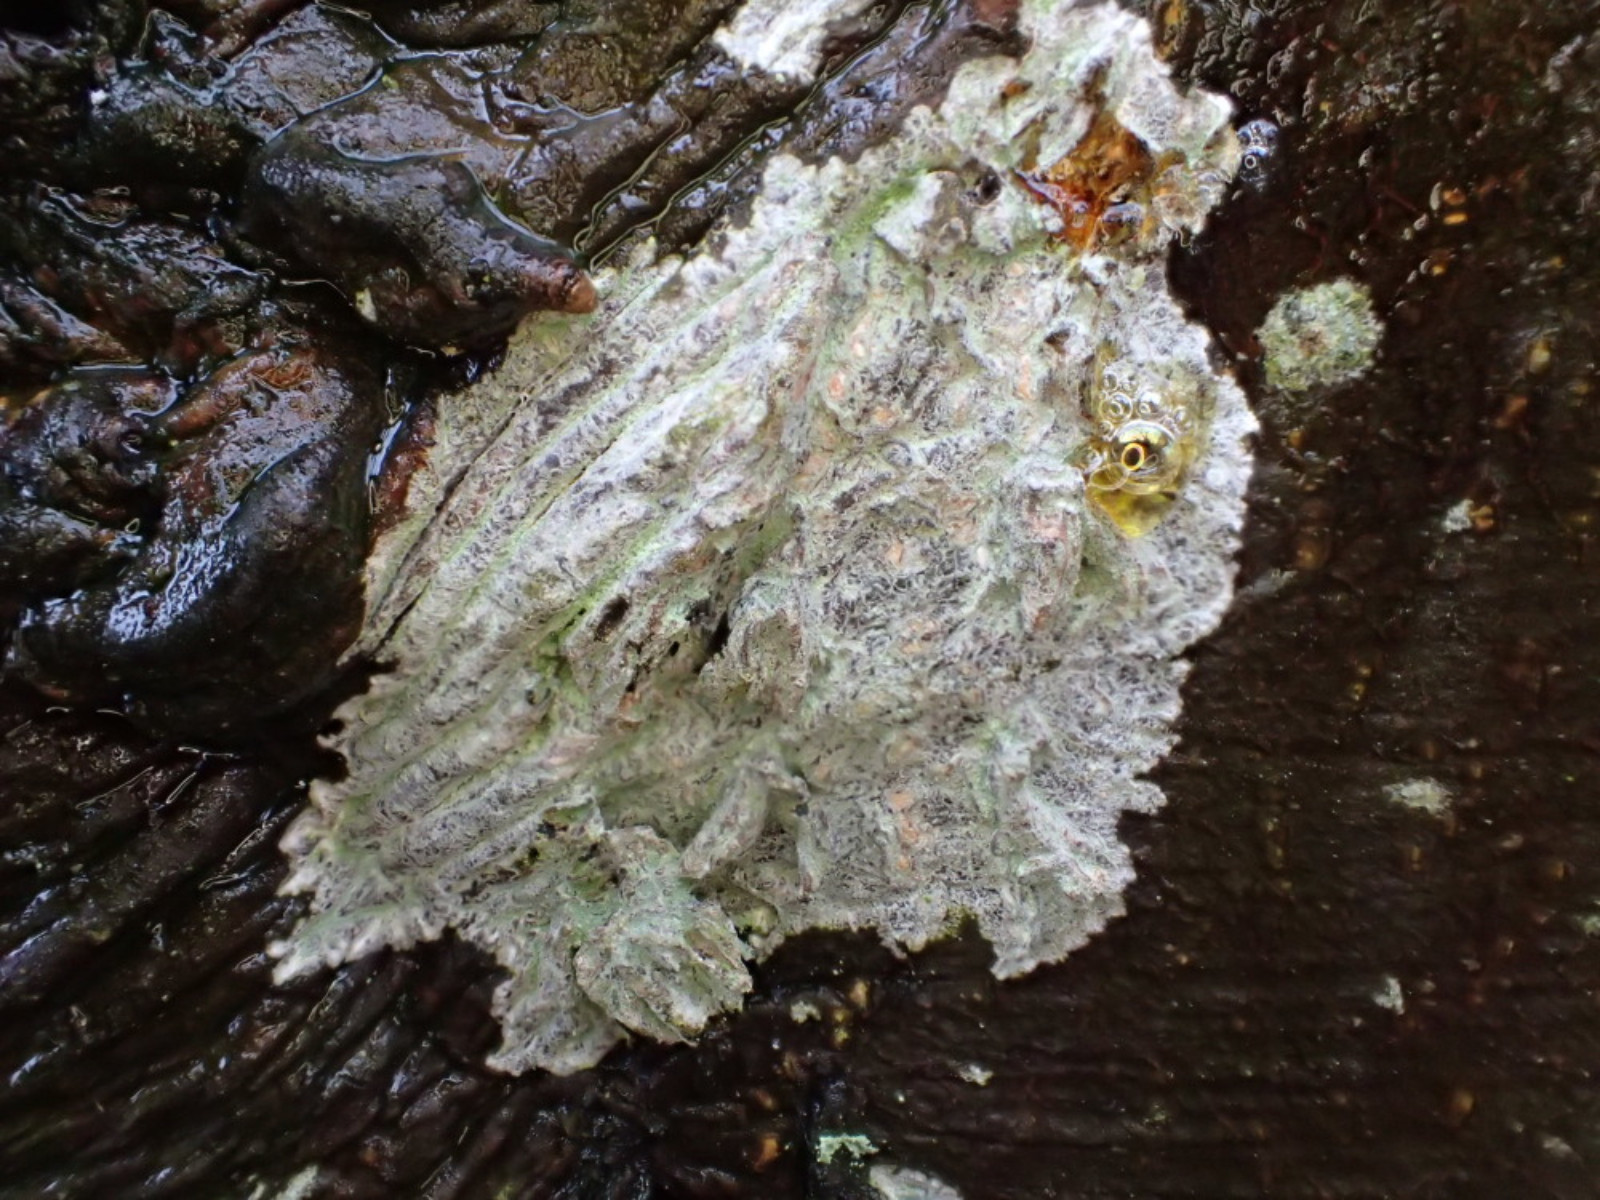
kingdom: Fungi
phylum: Ascomycota
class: Lecanoromycetes
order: Ostropales
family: Phlyctidaceae
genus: Phlyctis
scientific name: Phlyctis argena
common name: almindelig sølvlav
